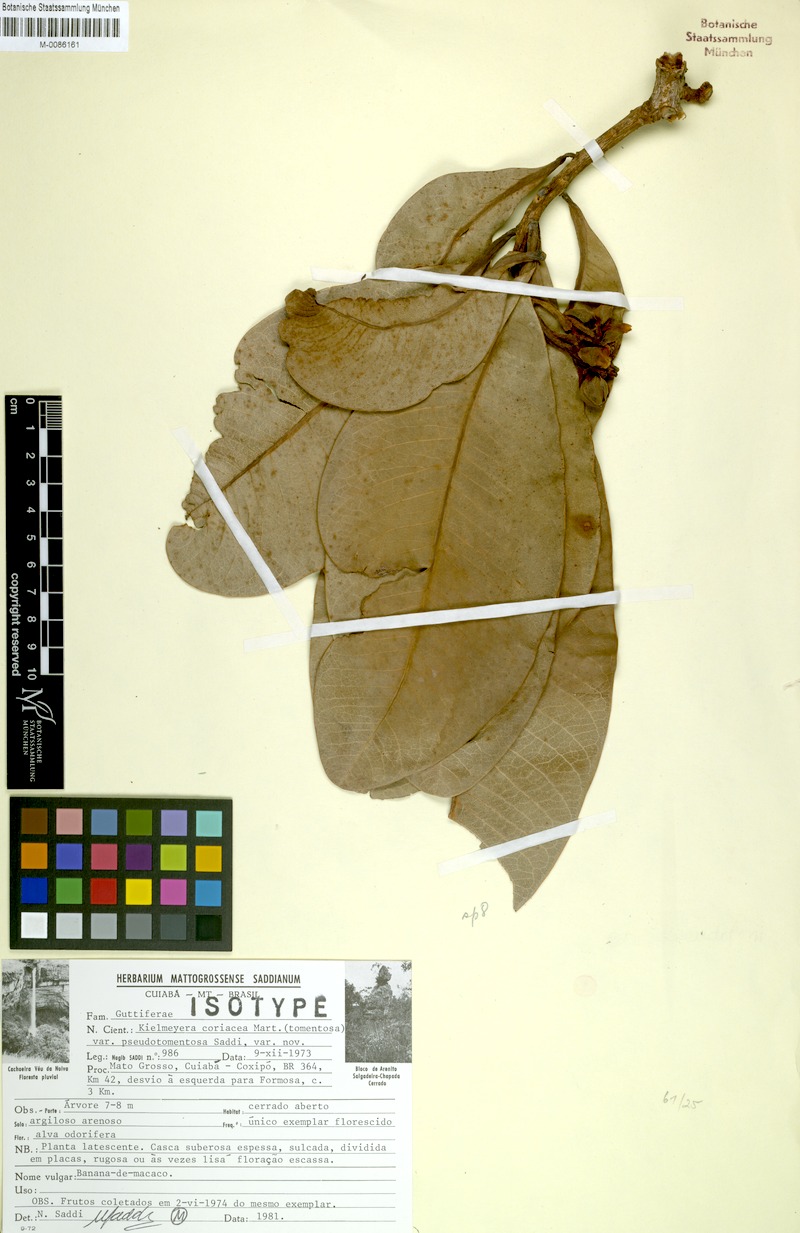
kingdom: Plantae
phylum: Tracheophyta
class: Magnoliopsida
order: Malpighiales
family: Calophyllaceae
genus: Kielmeyera
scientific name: Kielmeyera coriacea
